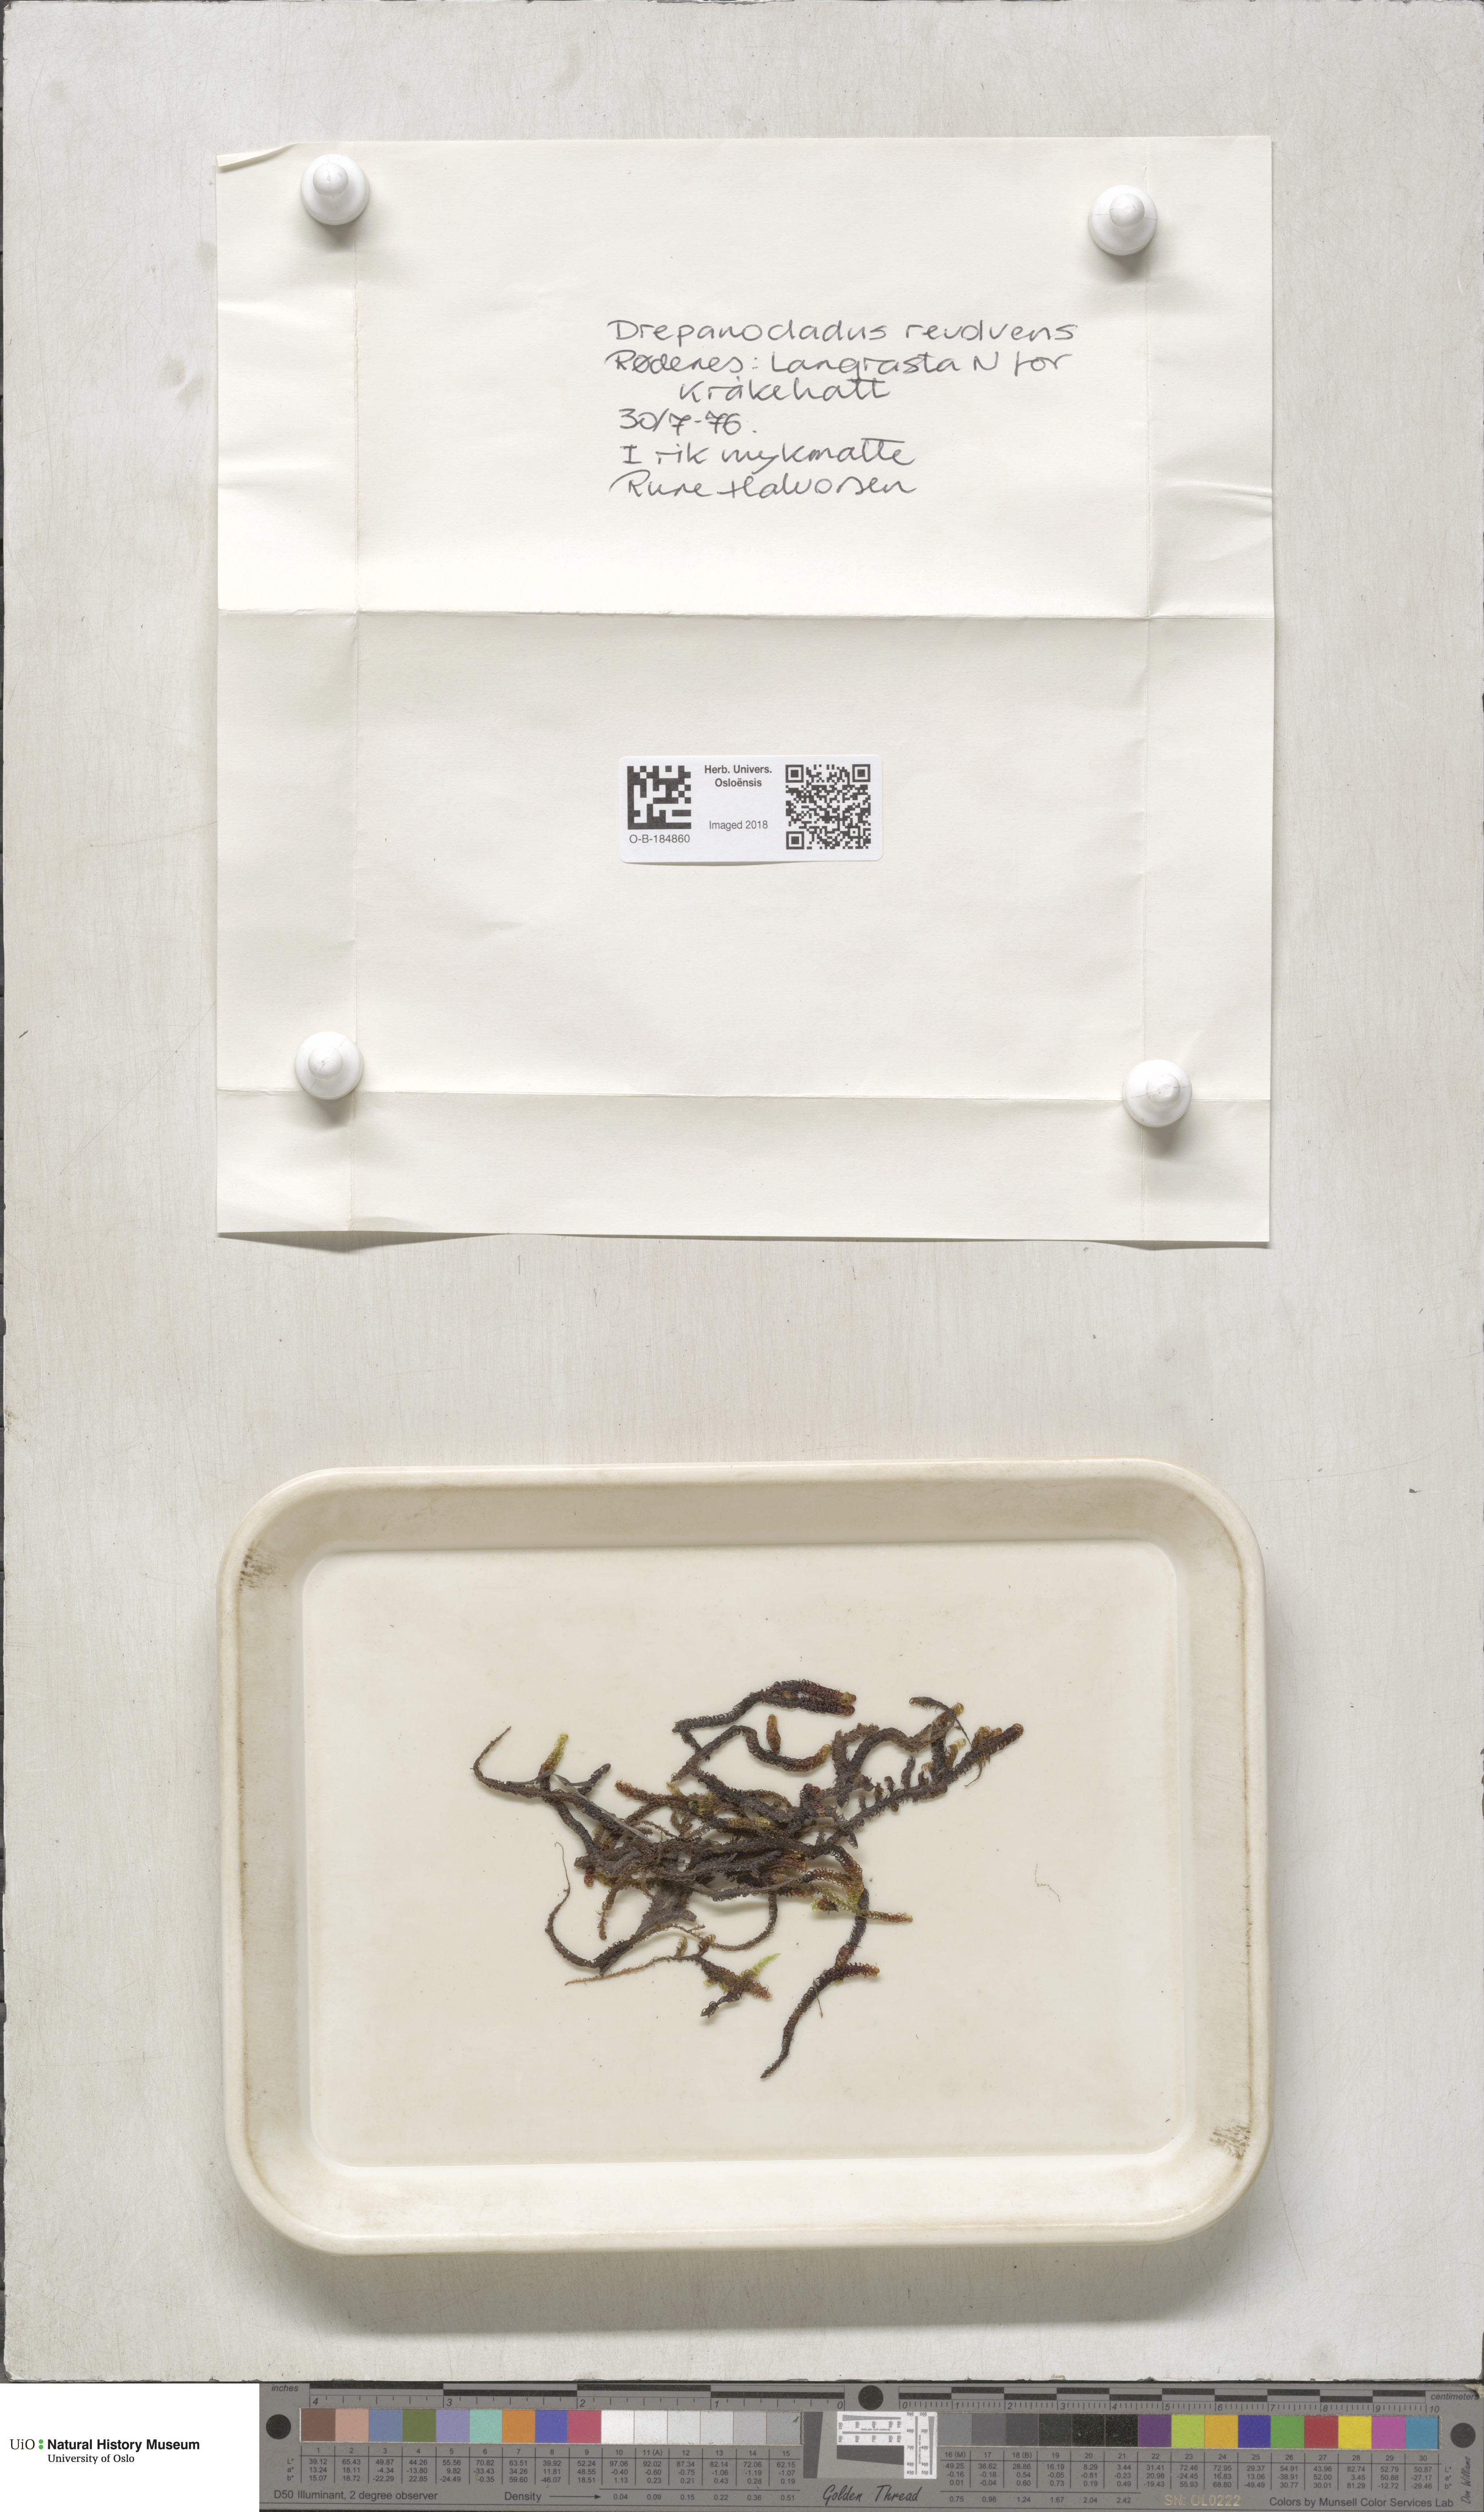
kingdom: Plantae
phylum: Bryophyta
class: Bryopsida
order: Hypnales
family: Scorpidiaceae
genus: Scorpidium
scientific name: Scorpidium revolvens
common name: Rusty hook moss
